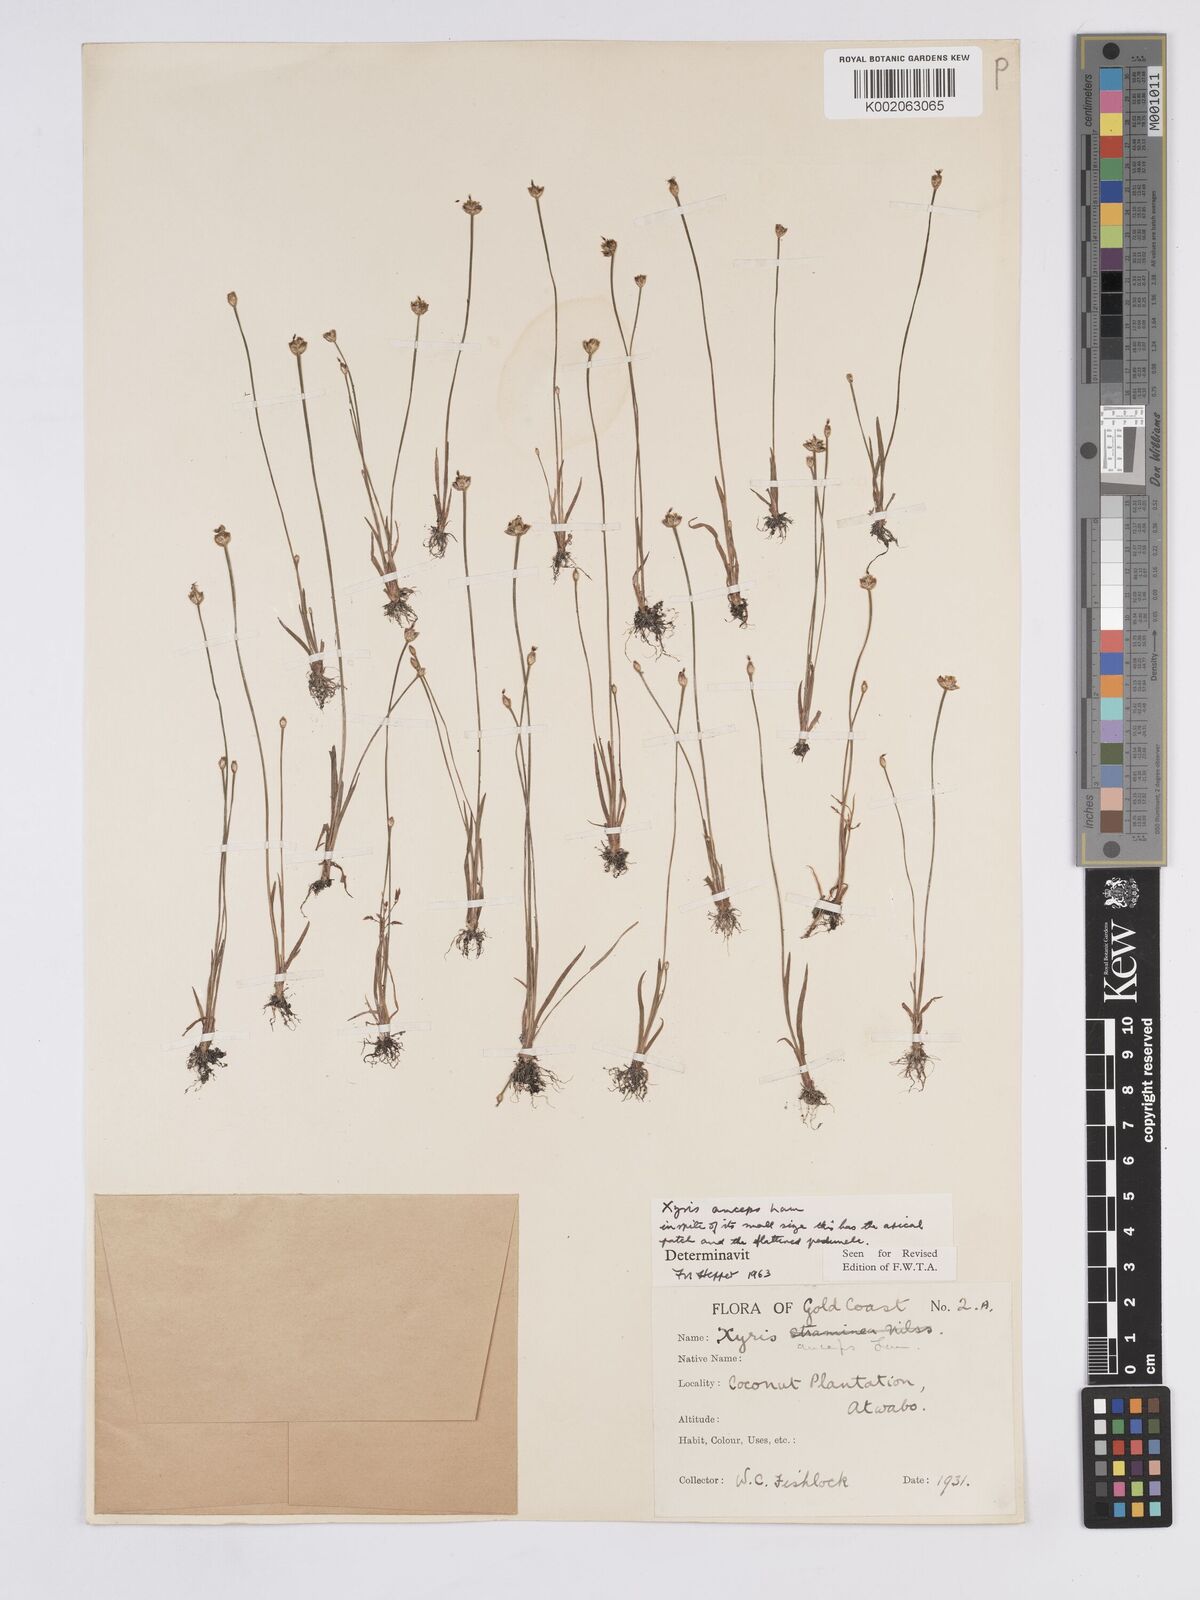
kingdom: Plantae
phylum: Tracheophyta
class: Liliopsida
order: Poales
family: Xyridaceae
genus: Xyris
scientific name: Xyris anceps
